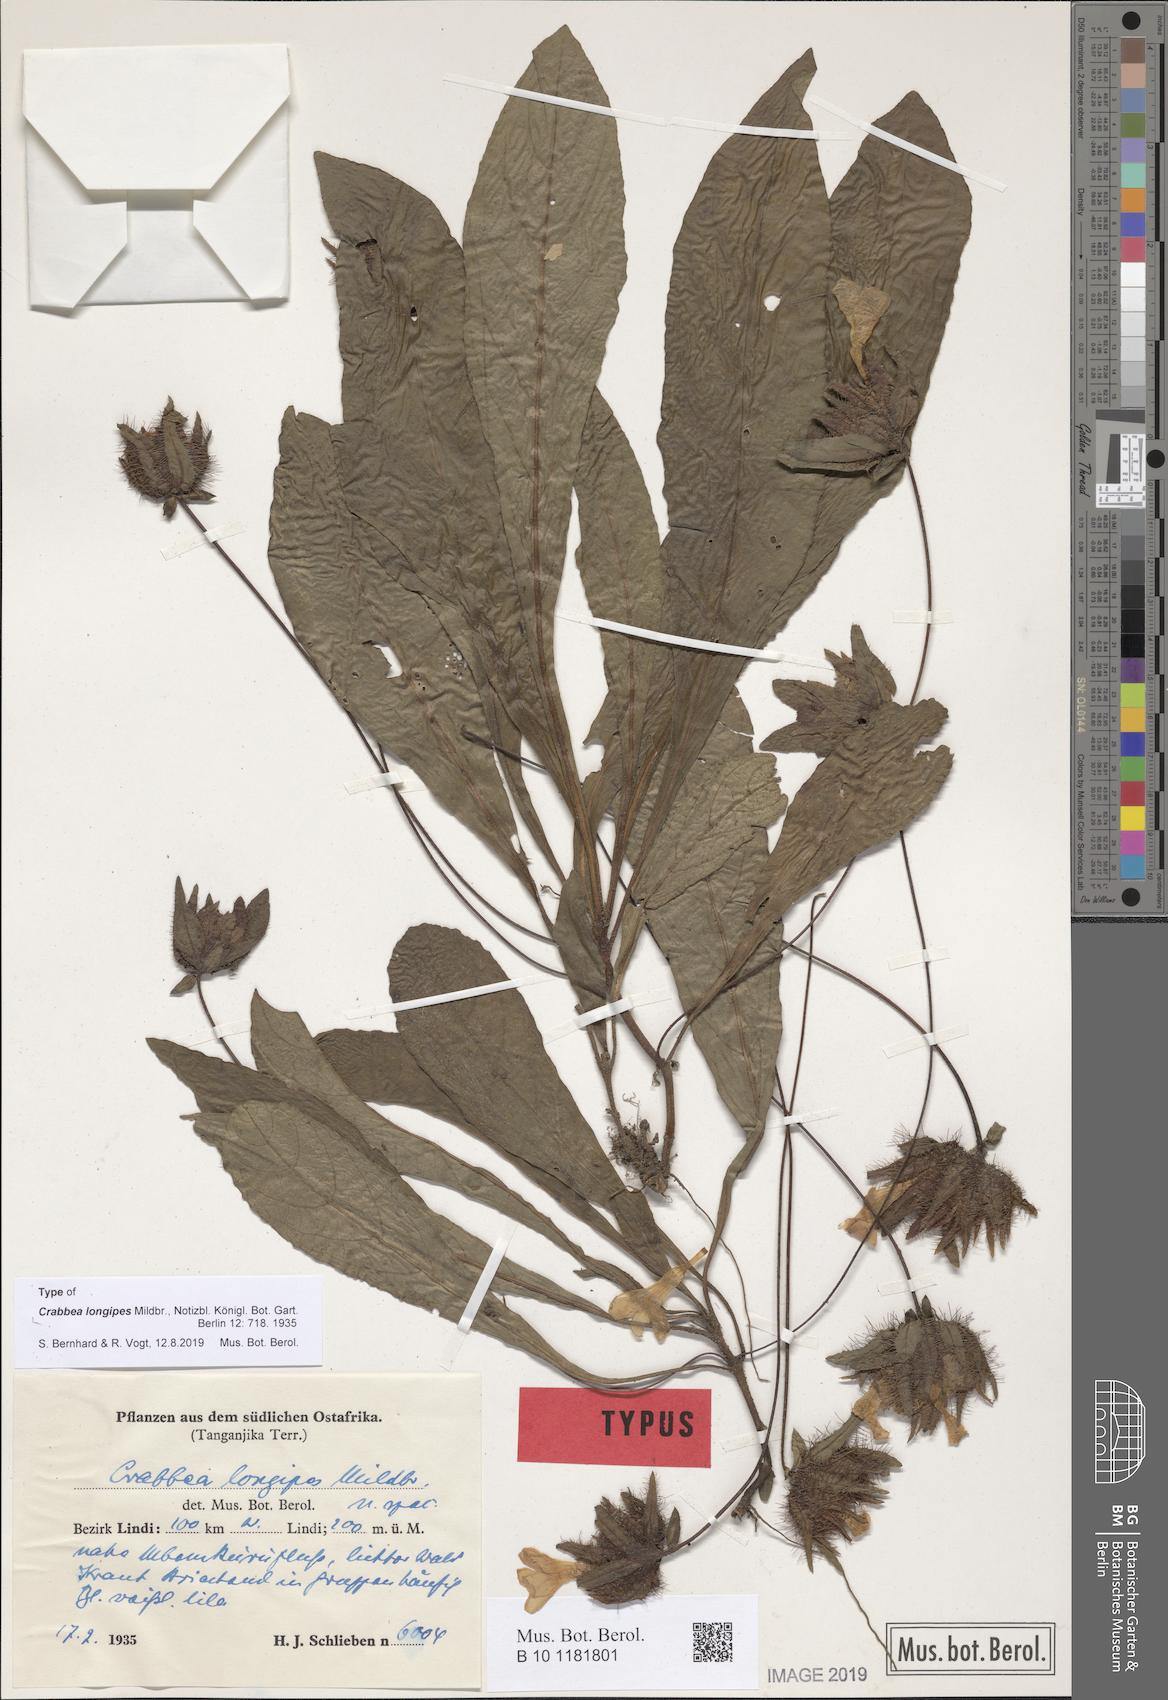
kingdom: Plantae
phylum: Tracheophyta
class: Magnoliopsida
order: Lamiales
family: Acanthaceae
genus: Crabbea
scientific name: Crabbea longipes
